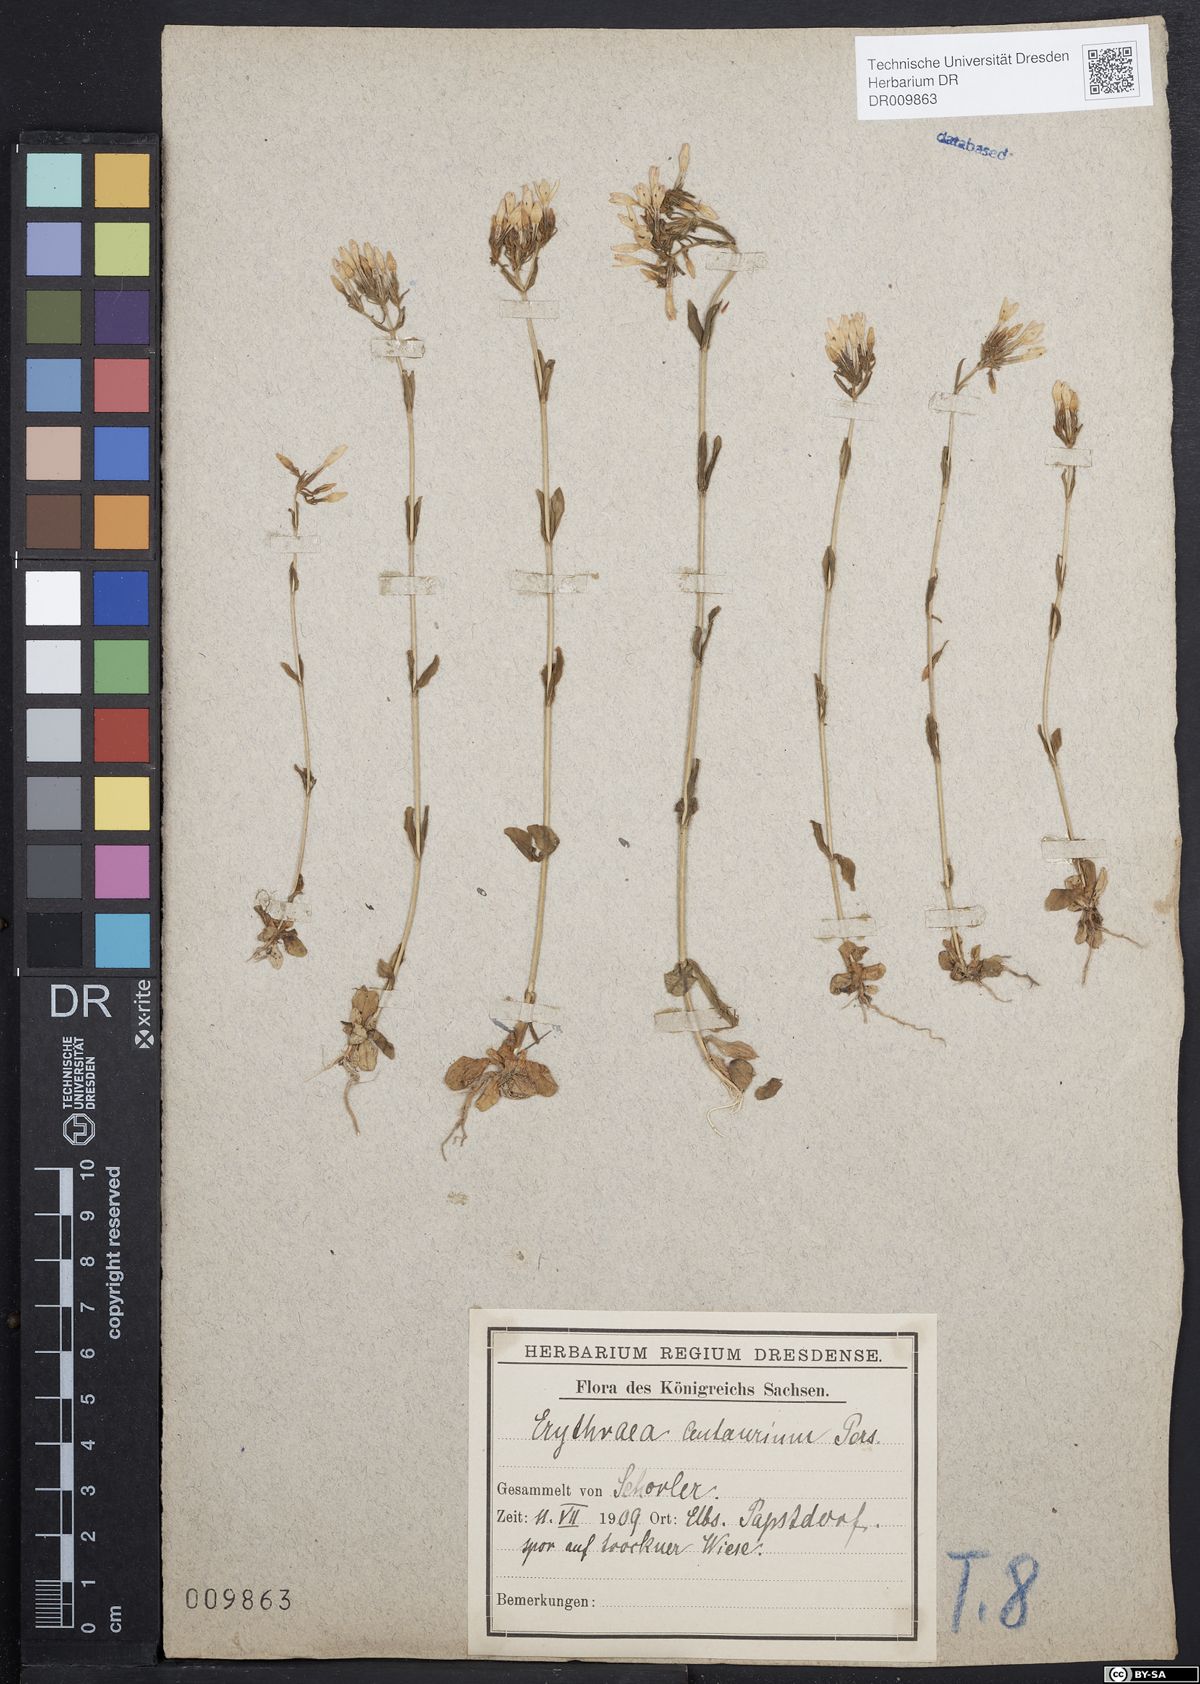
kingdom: Plantae
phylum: Tracheophyta
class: Magnoliopsida
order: Gentianales
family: Gentianaceae
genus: Centaurium
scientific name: Centaurium erythraea
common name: Common centaury
